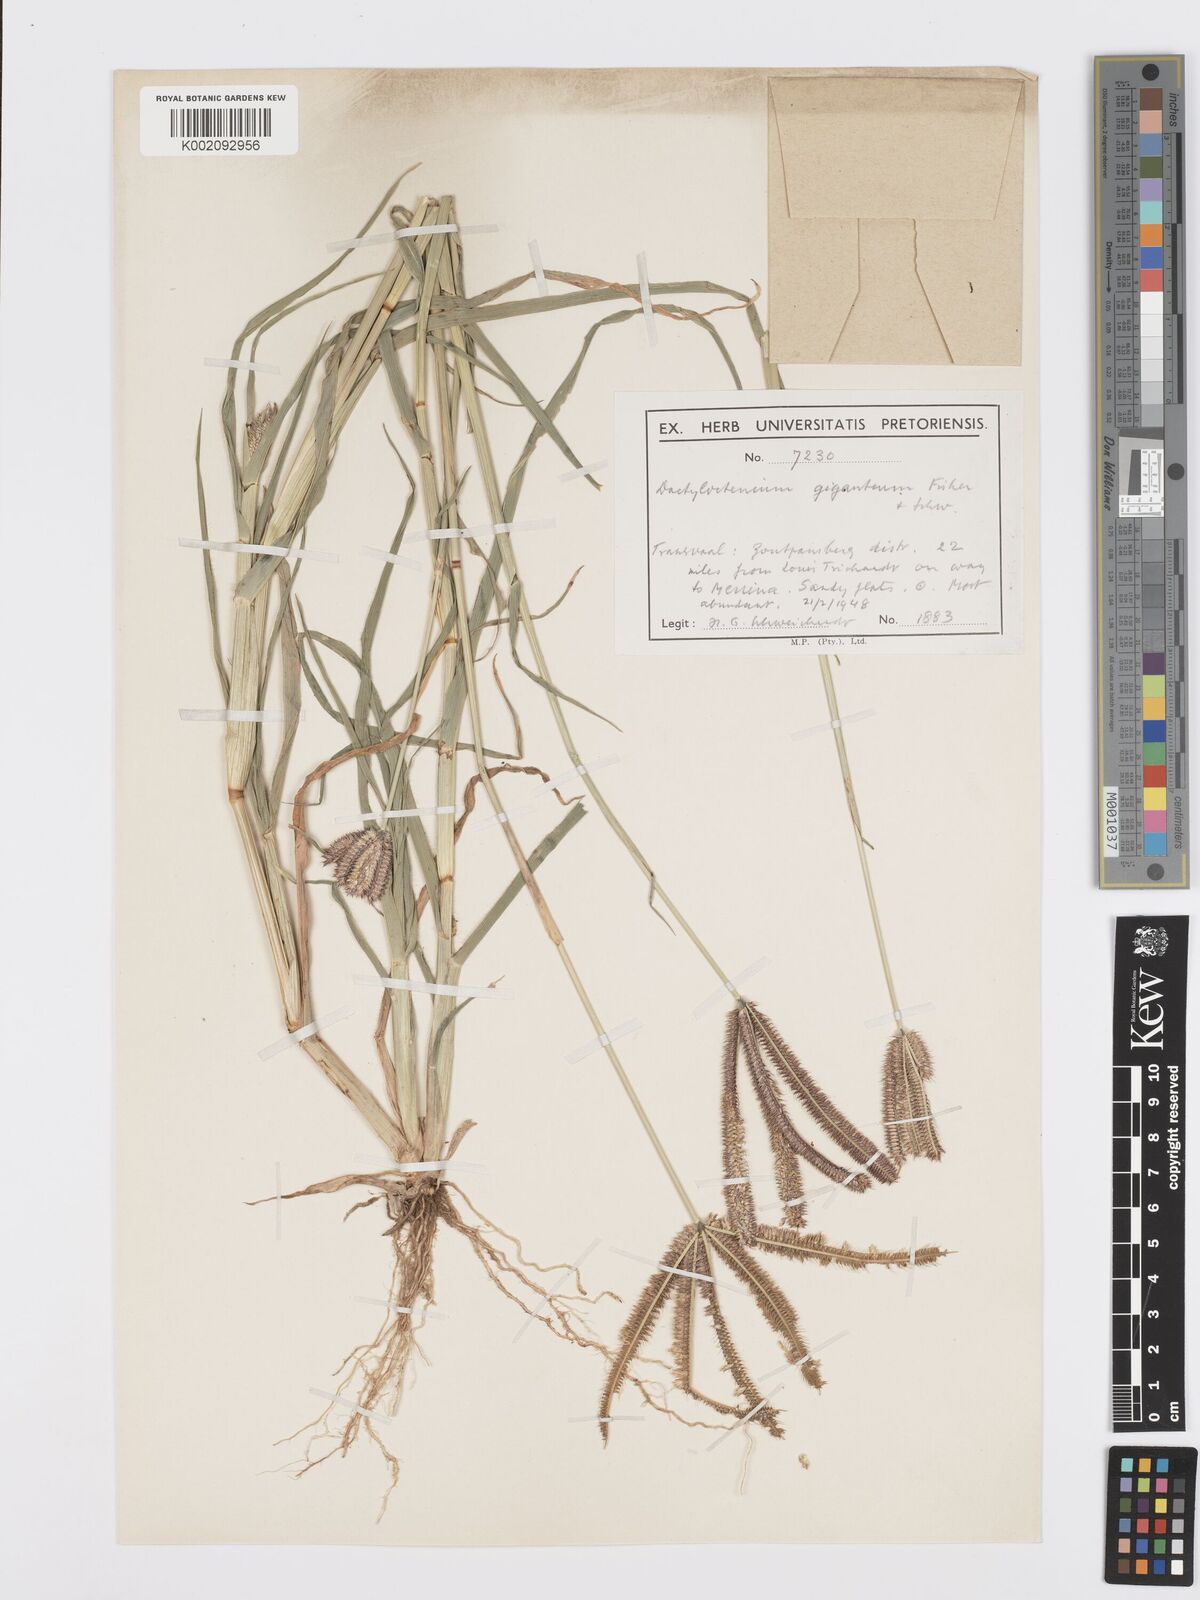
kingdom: Plantae
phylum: Tracheophyta
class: Liliopsida
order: Poales
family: Poaceae
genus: Dactyloctenium
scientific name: Dactyloctenium giganteum
